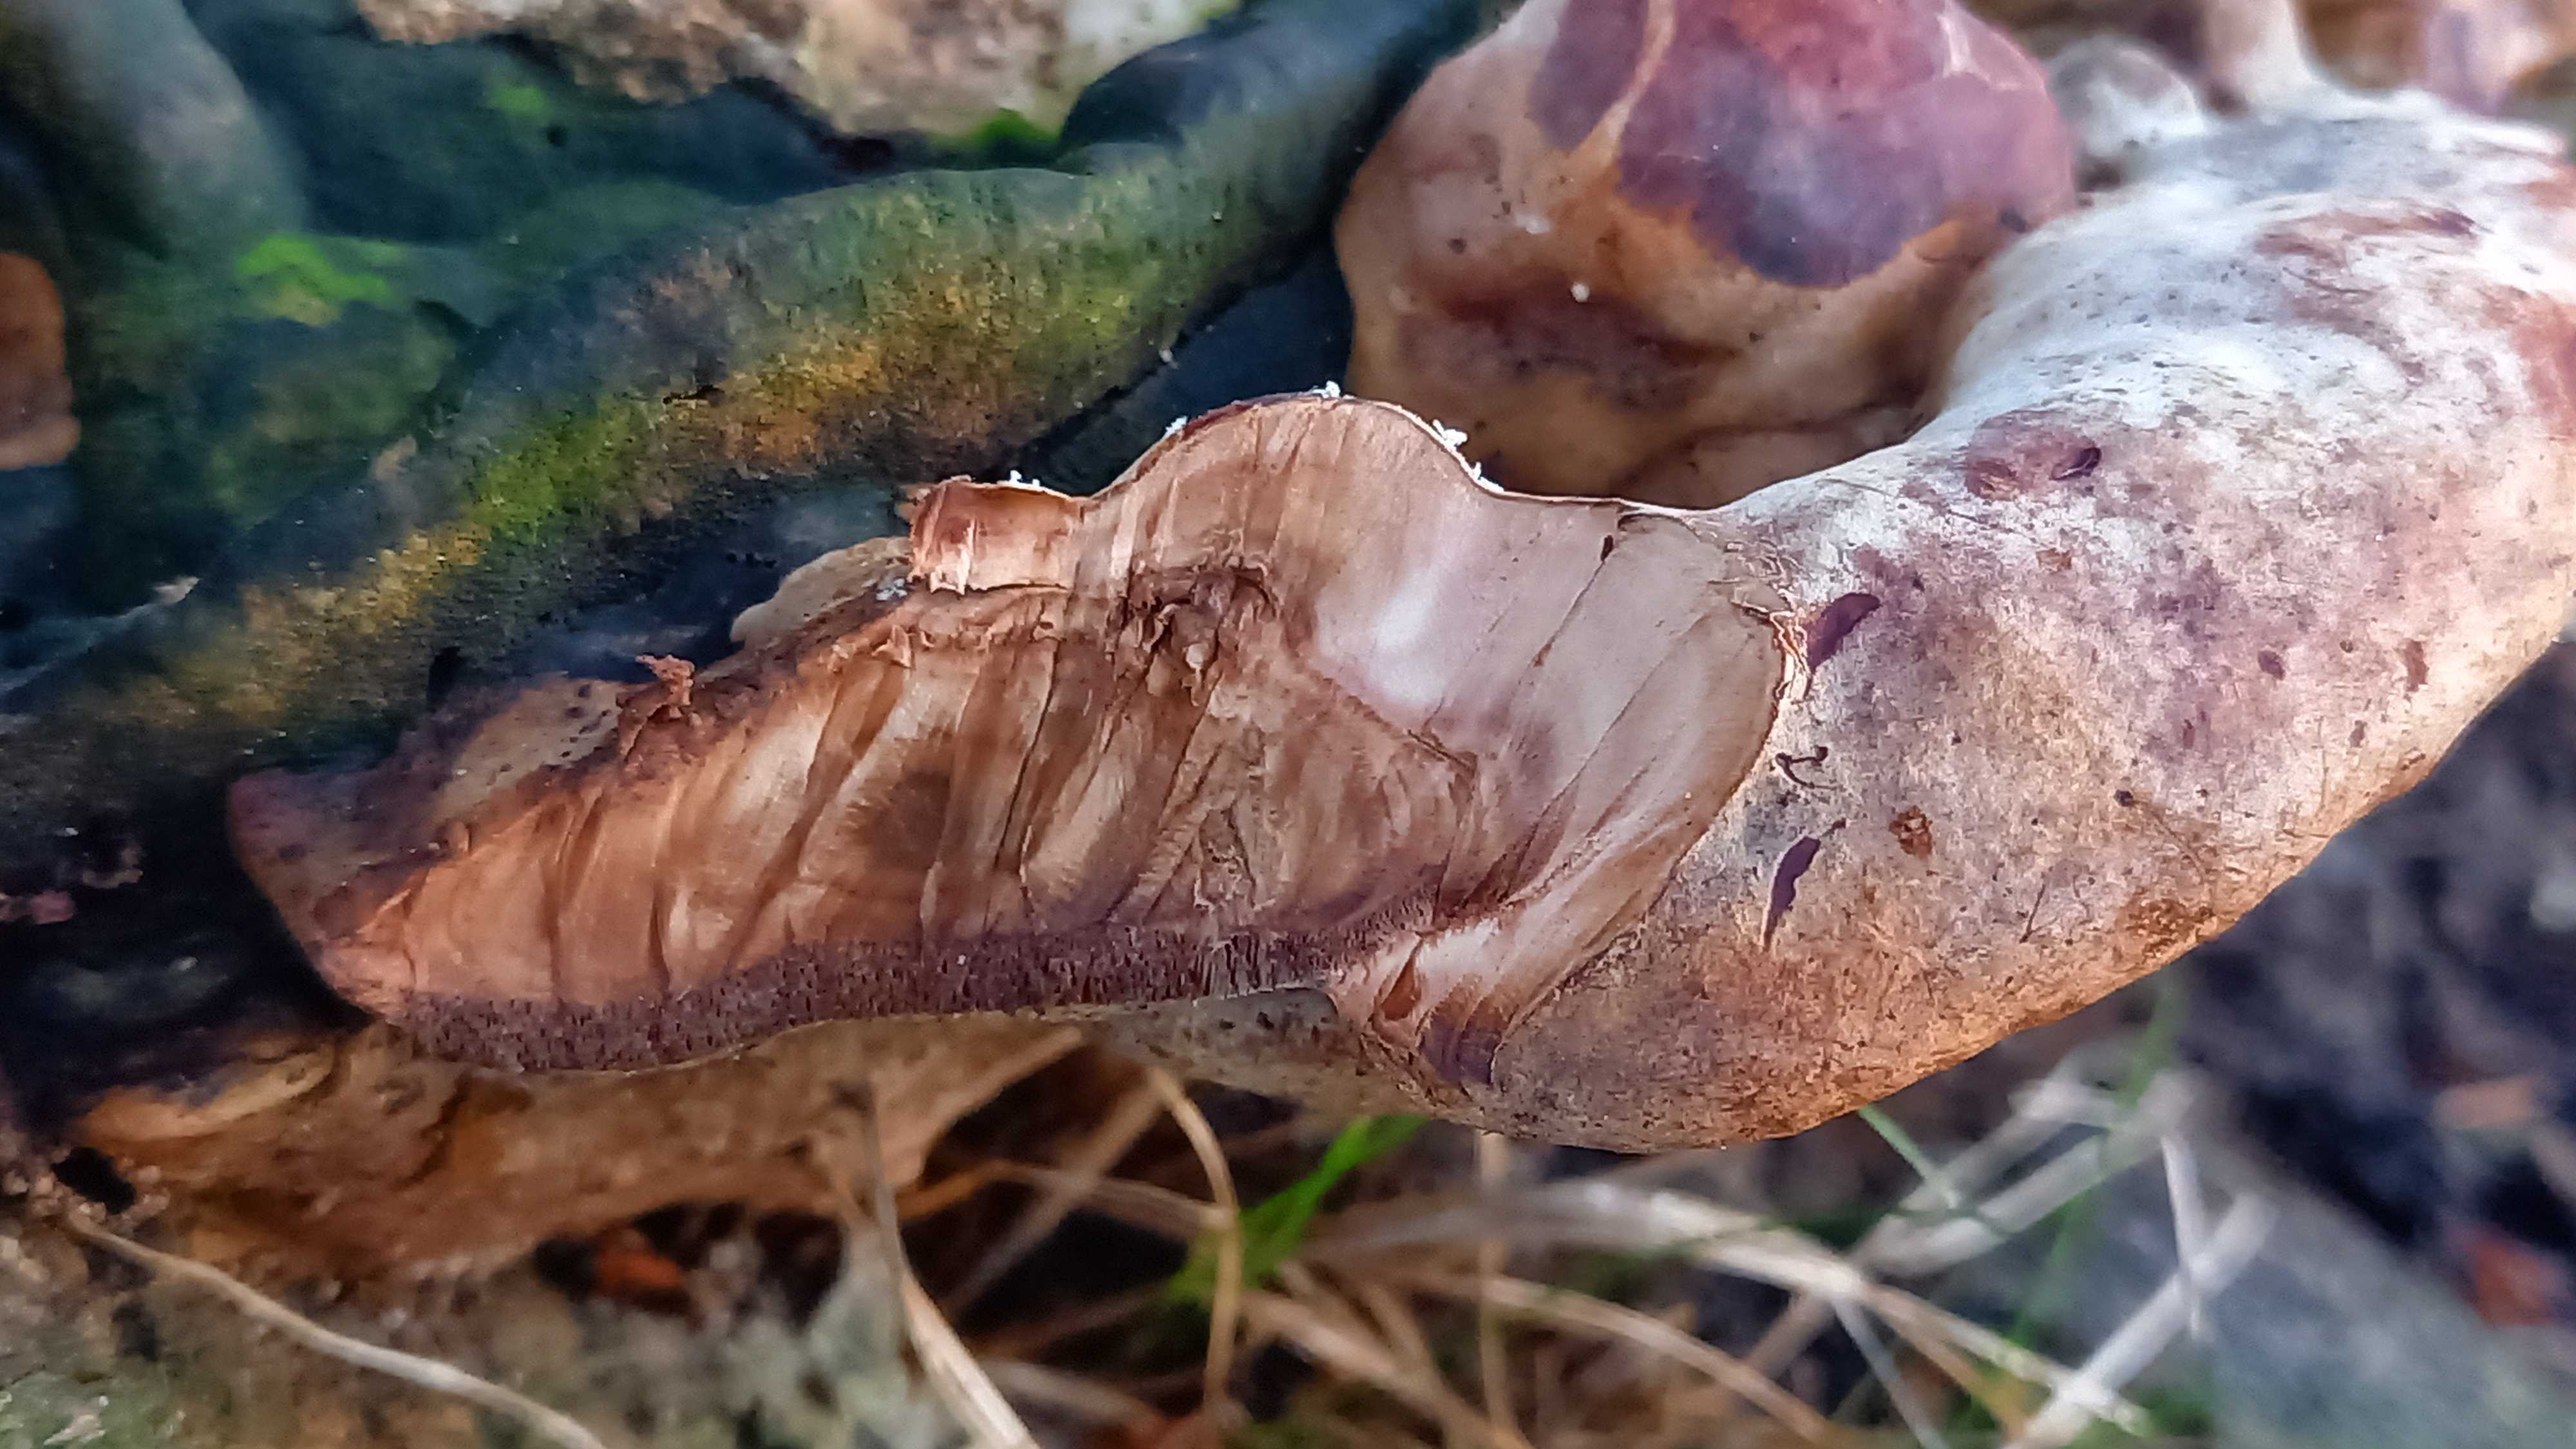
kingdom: Fungi
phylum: Basidiomycota
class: Agaricomycetes
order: Polyporales
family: Polyporaceae
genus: Vanderbylia
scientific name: Vanderbylia fraxinea
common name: stor kanelporesvamp
